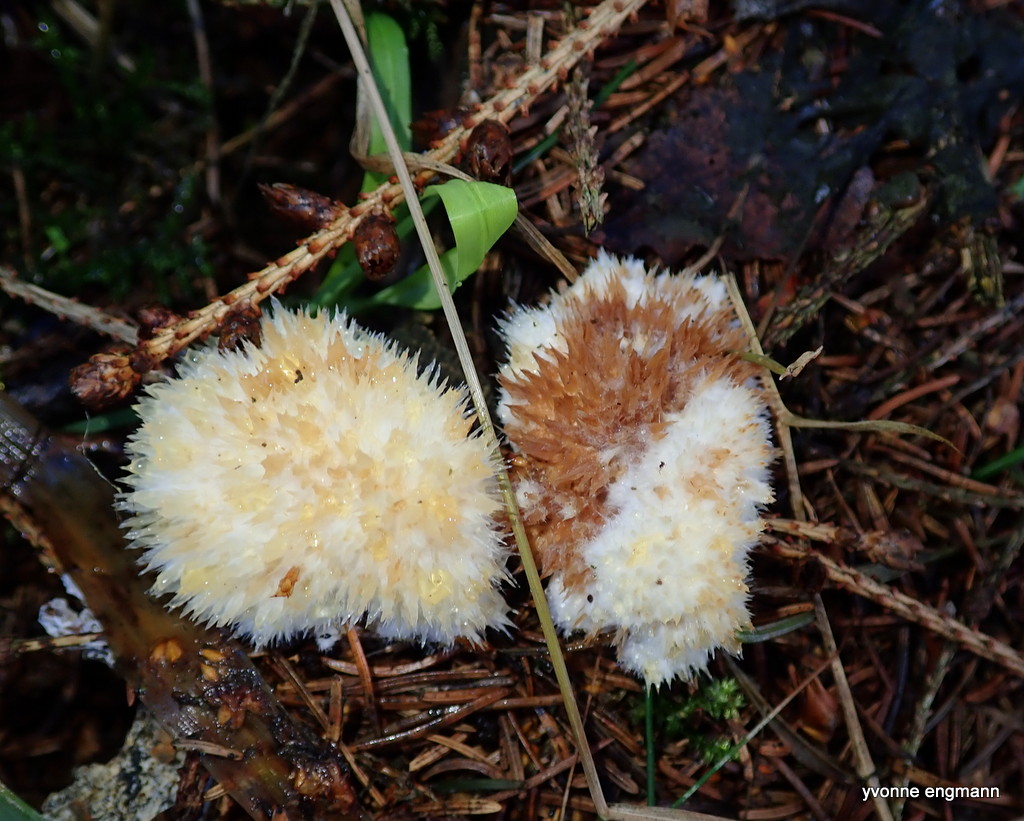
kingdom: Fungi
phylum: Basidiomycota
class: Agaricomycetes
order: Polyporales
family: Dacryobolaceae
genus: Postia
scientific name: Postia ptychogaster
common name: støvende kødporesvamp
